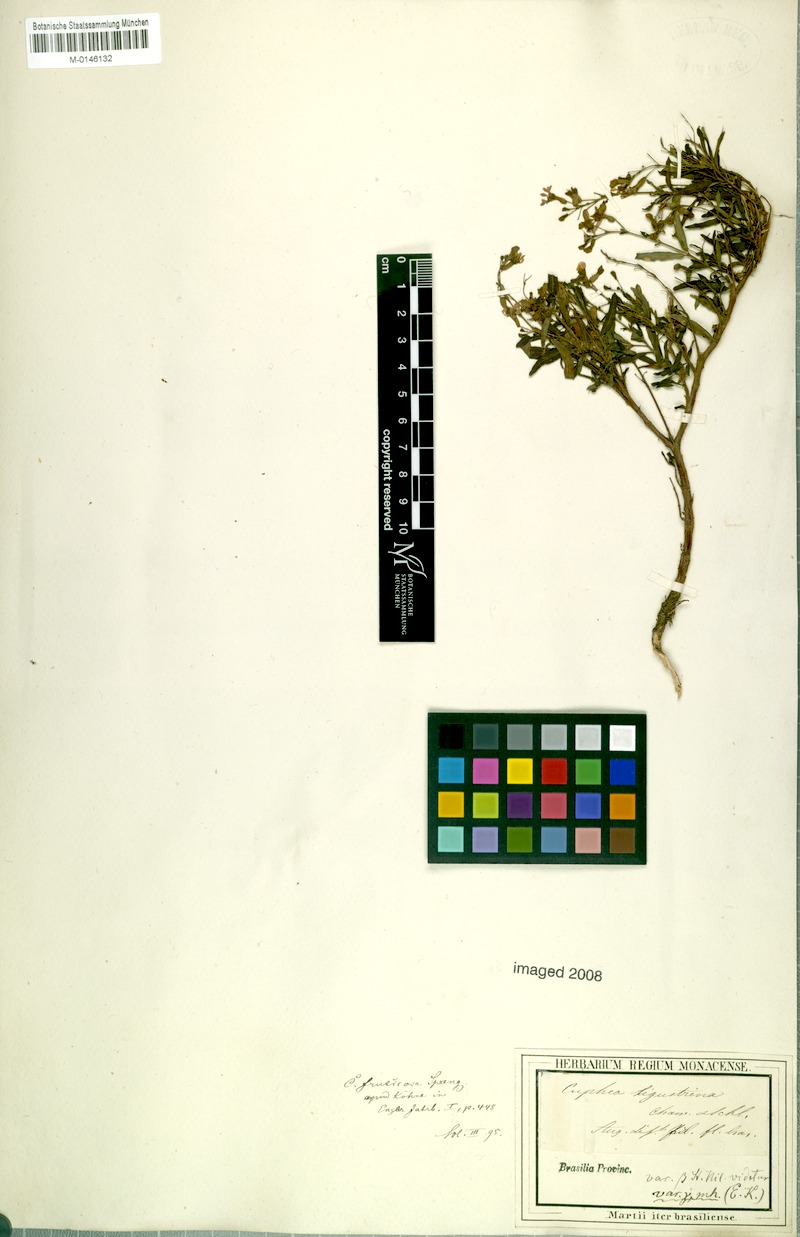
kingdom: Plantae
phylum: Tracheophyta
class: Magnoliopsida
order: Myrtales
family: Lythraceae
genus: Cuphea
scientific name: Cuphea fruticosa
